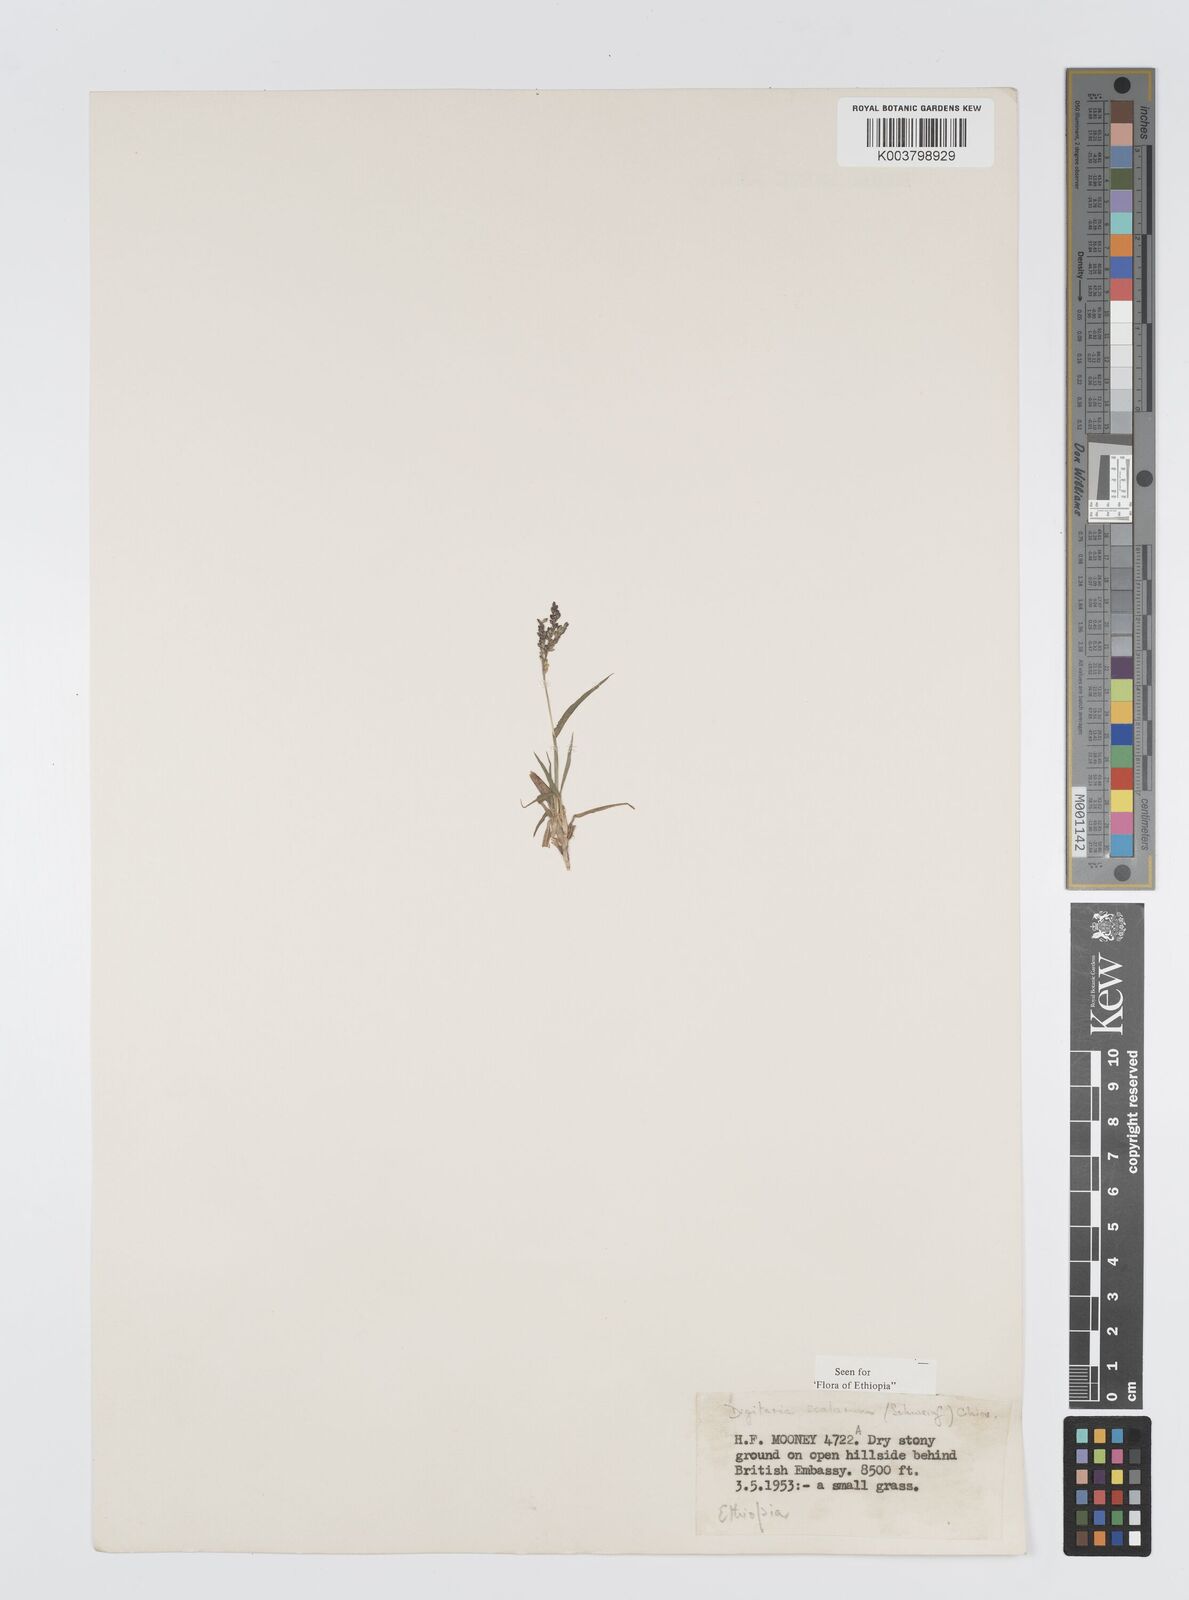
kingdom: Plantae
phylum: Tracheophyta
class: Liliopsida
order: Poales
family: Poaceae
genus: Digitaria
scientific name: Digitaria abyssinica
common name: African couchgrass
